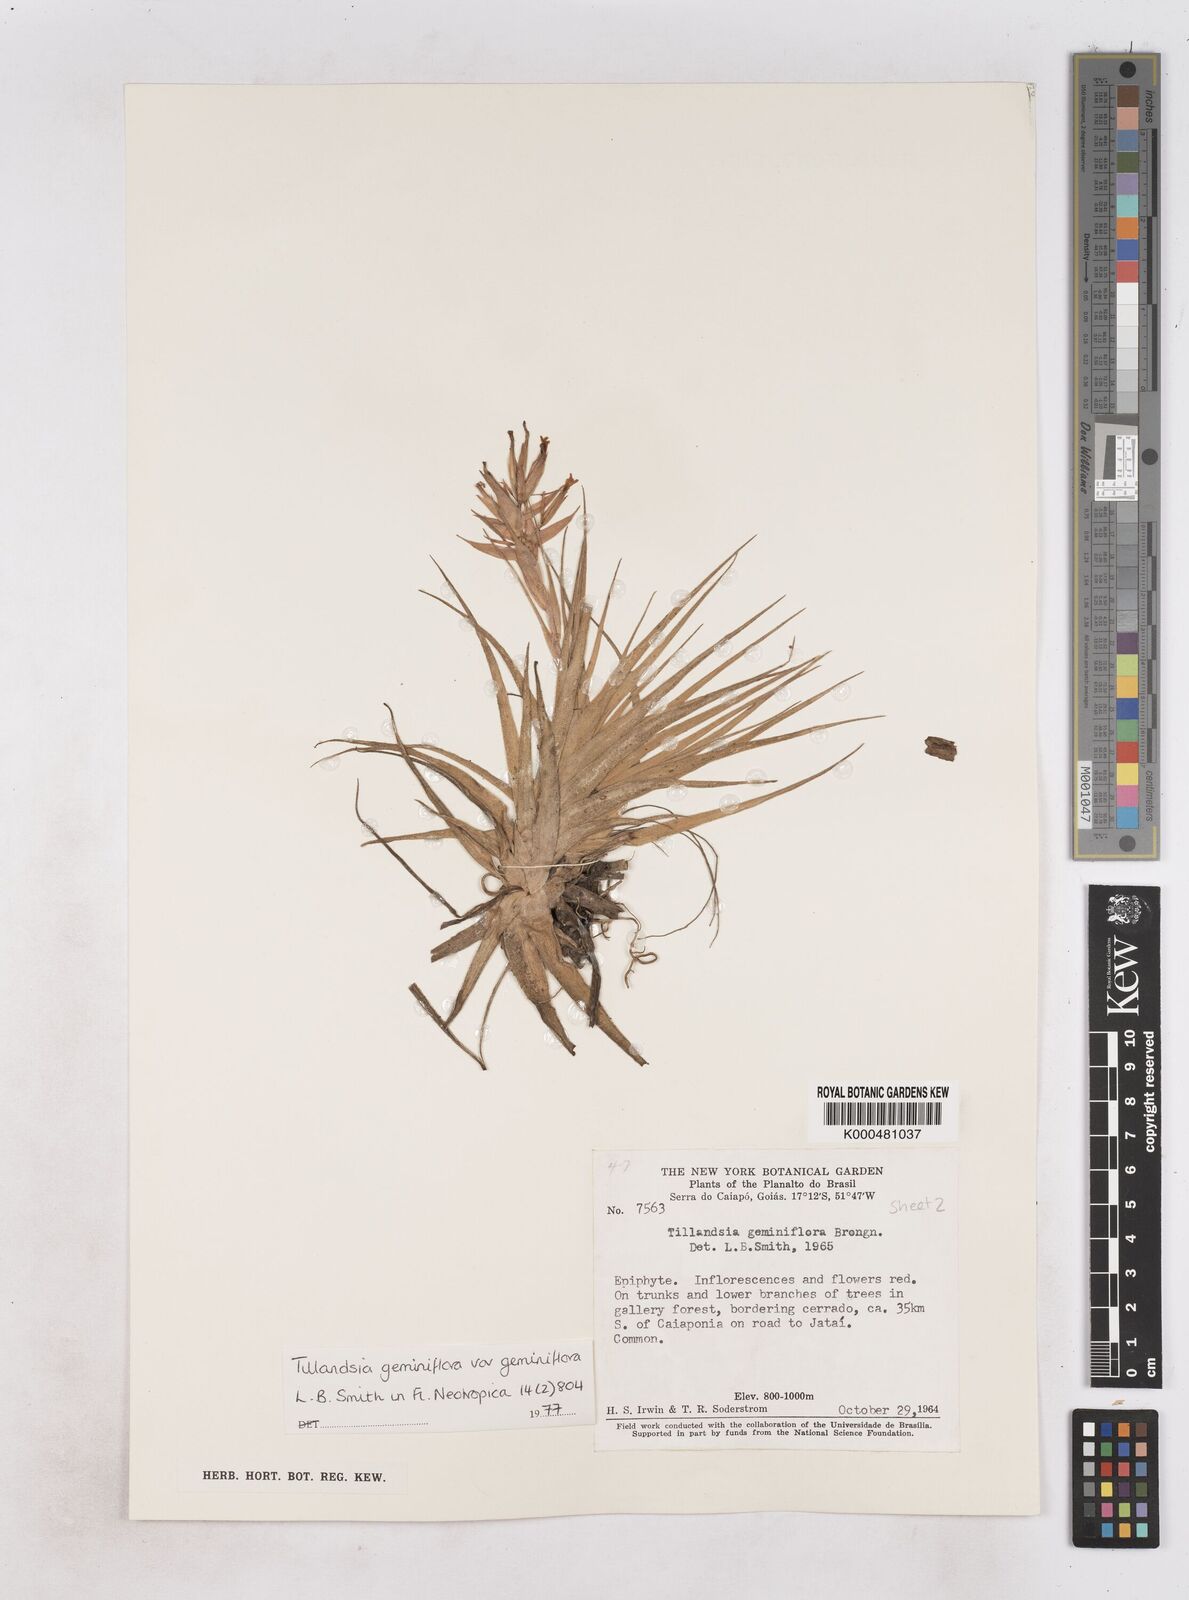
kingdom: Plantae
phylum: Tracheophyta
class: Liliopsida
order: Poales
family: Bromeliaceae
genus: Tillandsia
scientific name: Tillandsia geminiflora
